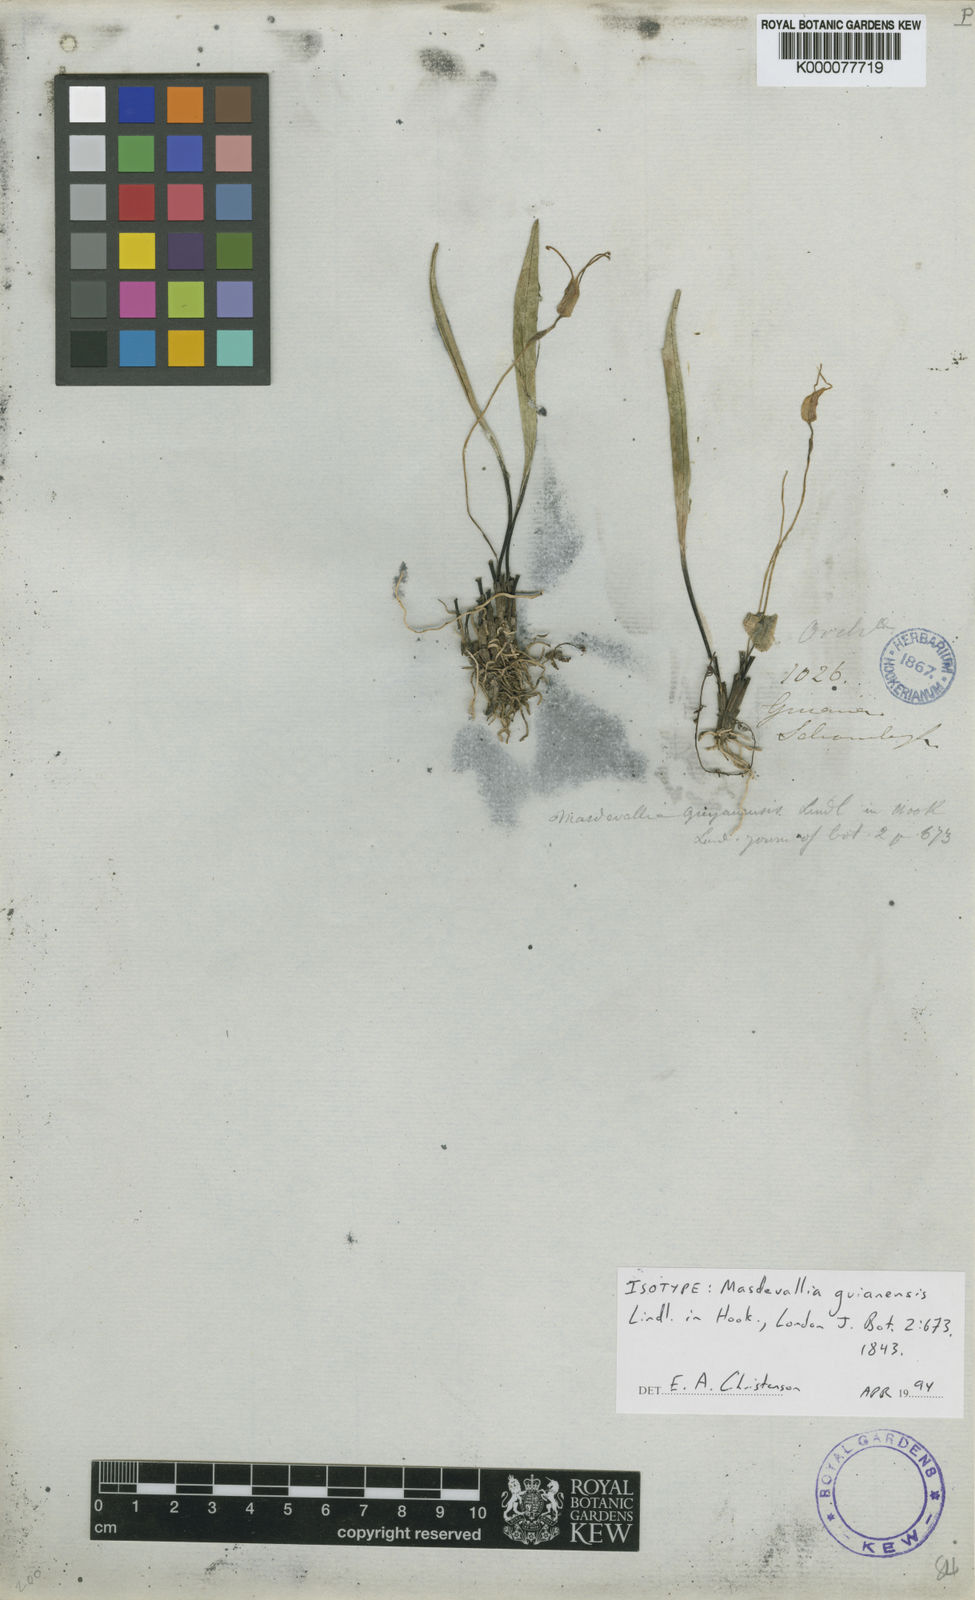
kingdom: Plantae
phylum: Tracheophyta
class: Liliopsida
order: Asparagales
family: Orchidaceae
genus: Masdevallia
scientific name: Masdevallia
